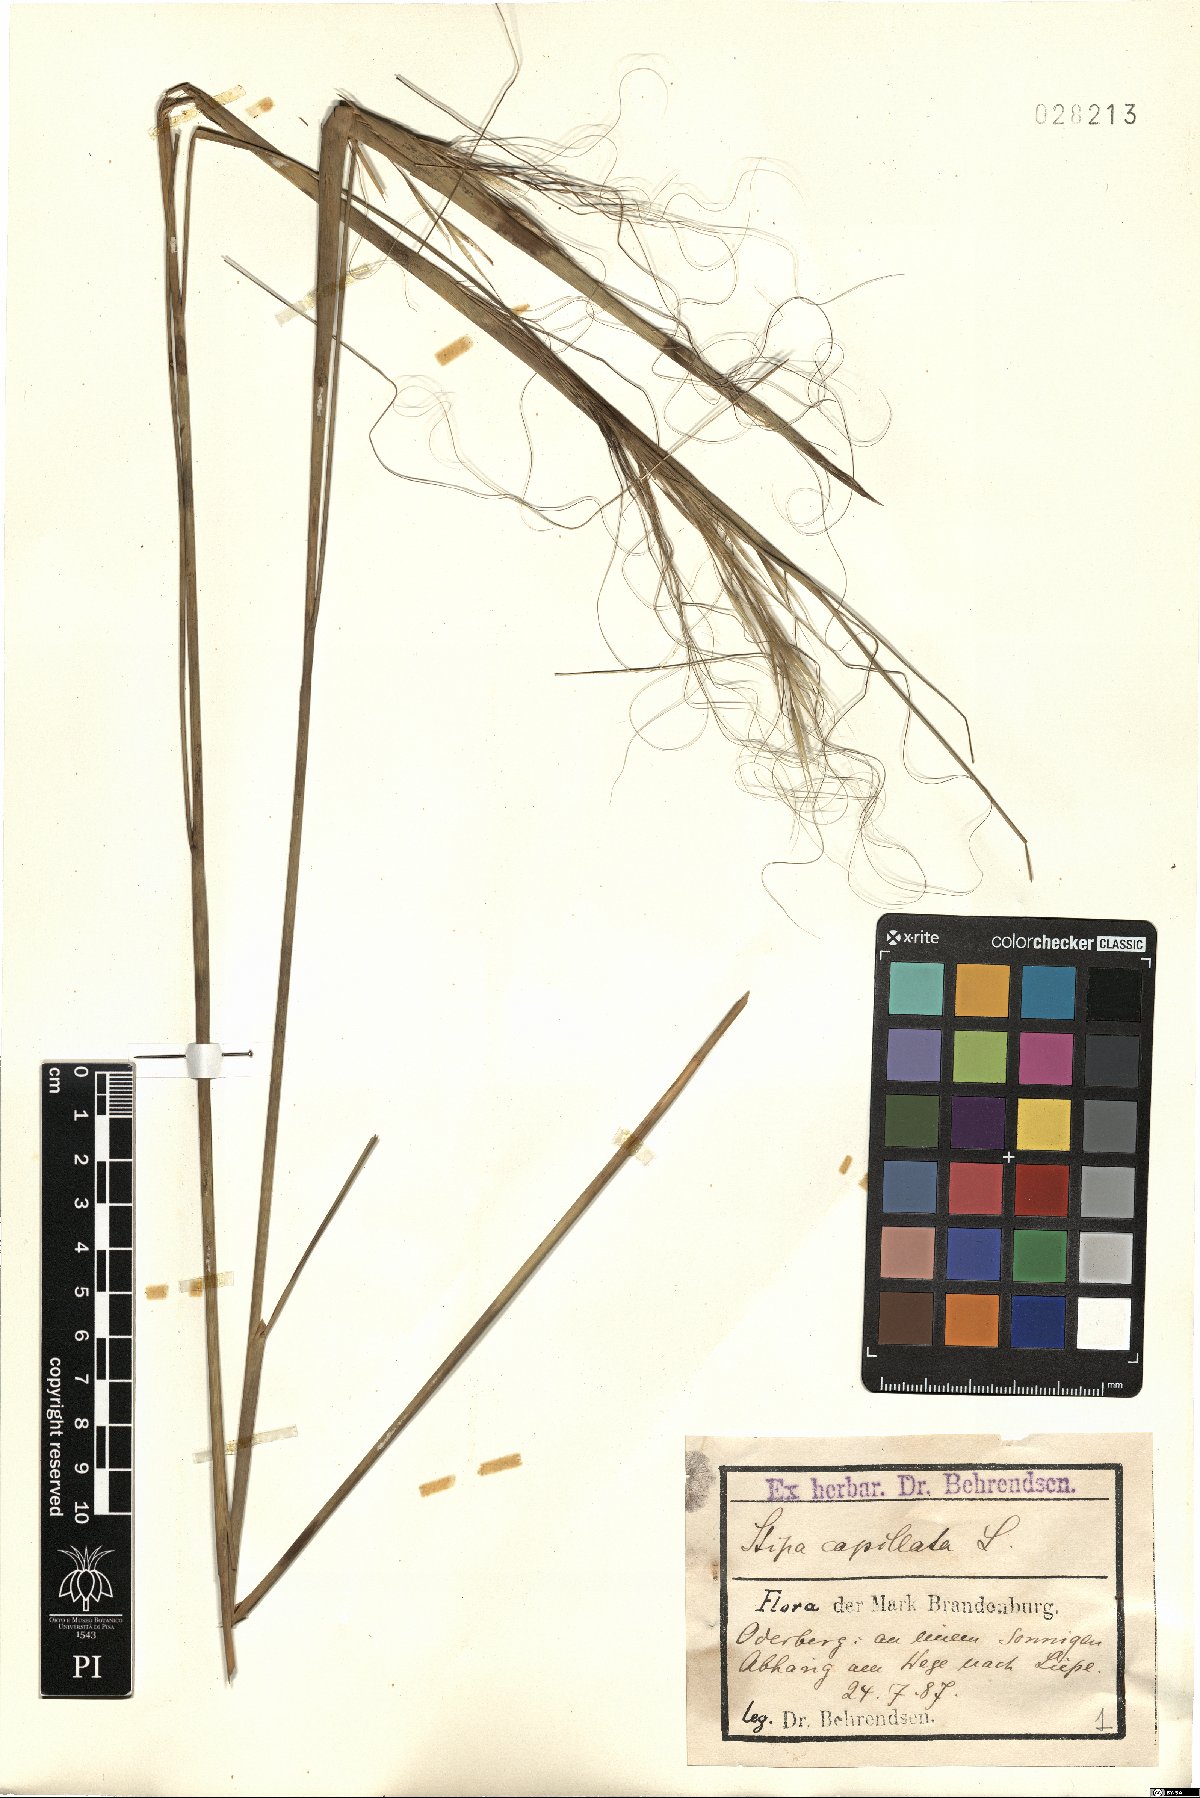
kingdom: Plantae
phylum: Tracheophyta
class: Liliopsida
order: Poales
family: Poaceae
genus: Stipa
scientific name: Stipa capillata
